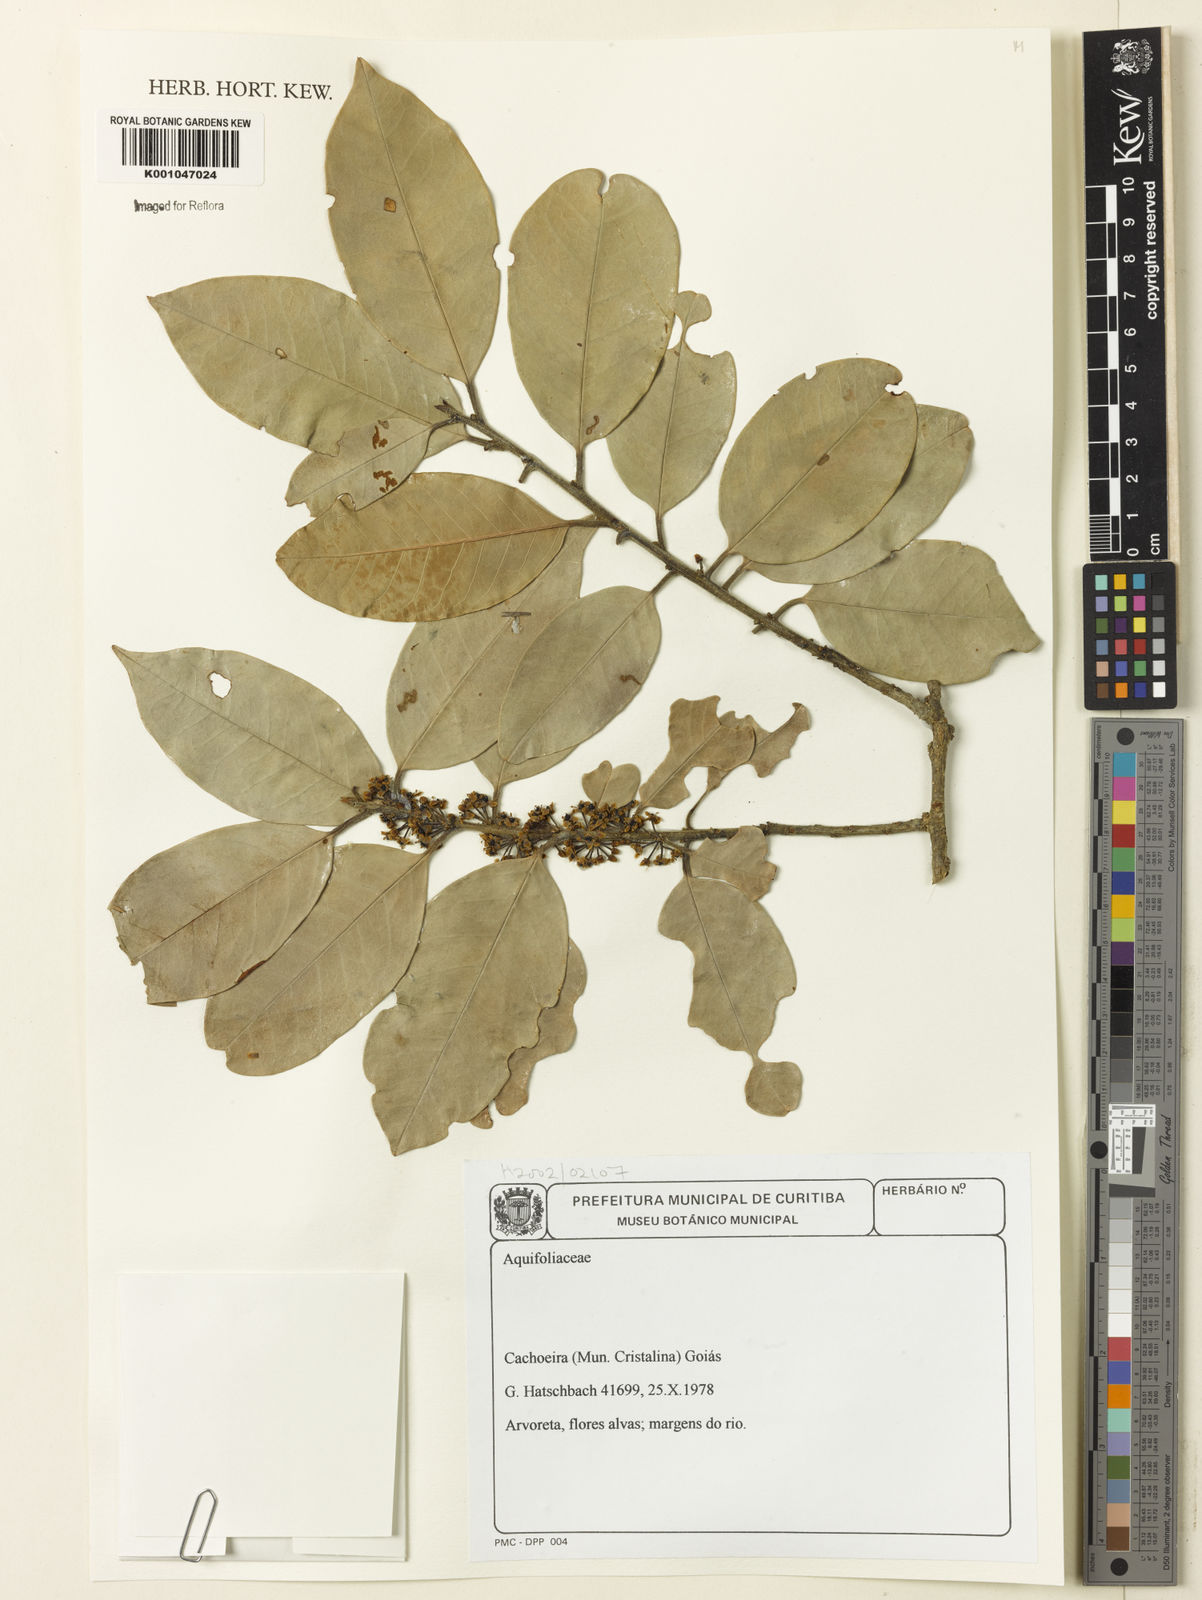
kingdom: Plantae
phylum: Tracheophyta
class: Magnoliopsida
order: Aquifoliales
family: Aquifoliaceae
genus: Ilex
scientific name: Ilex
